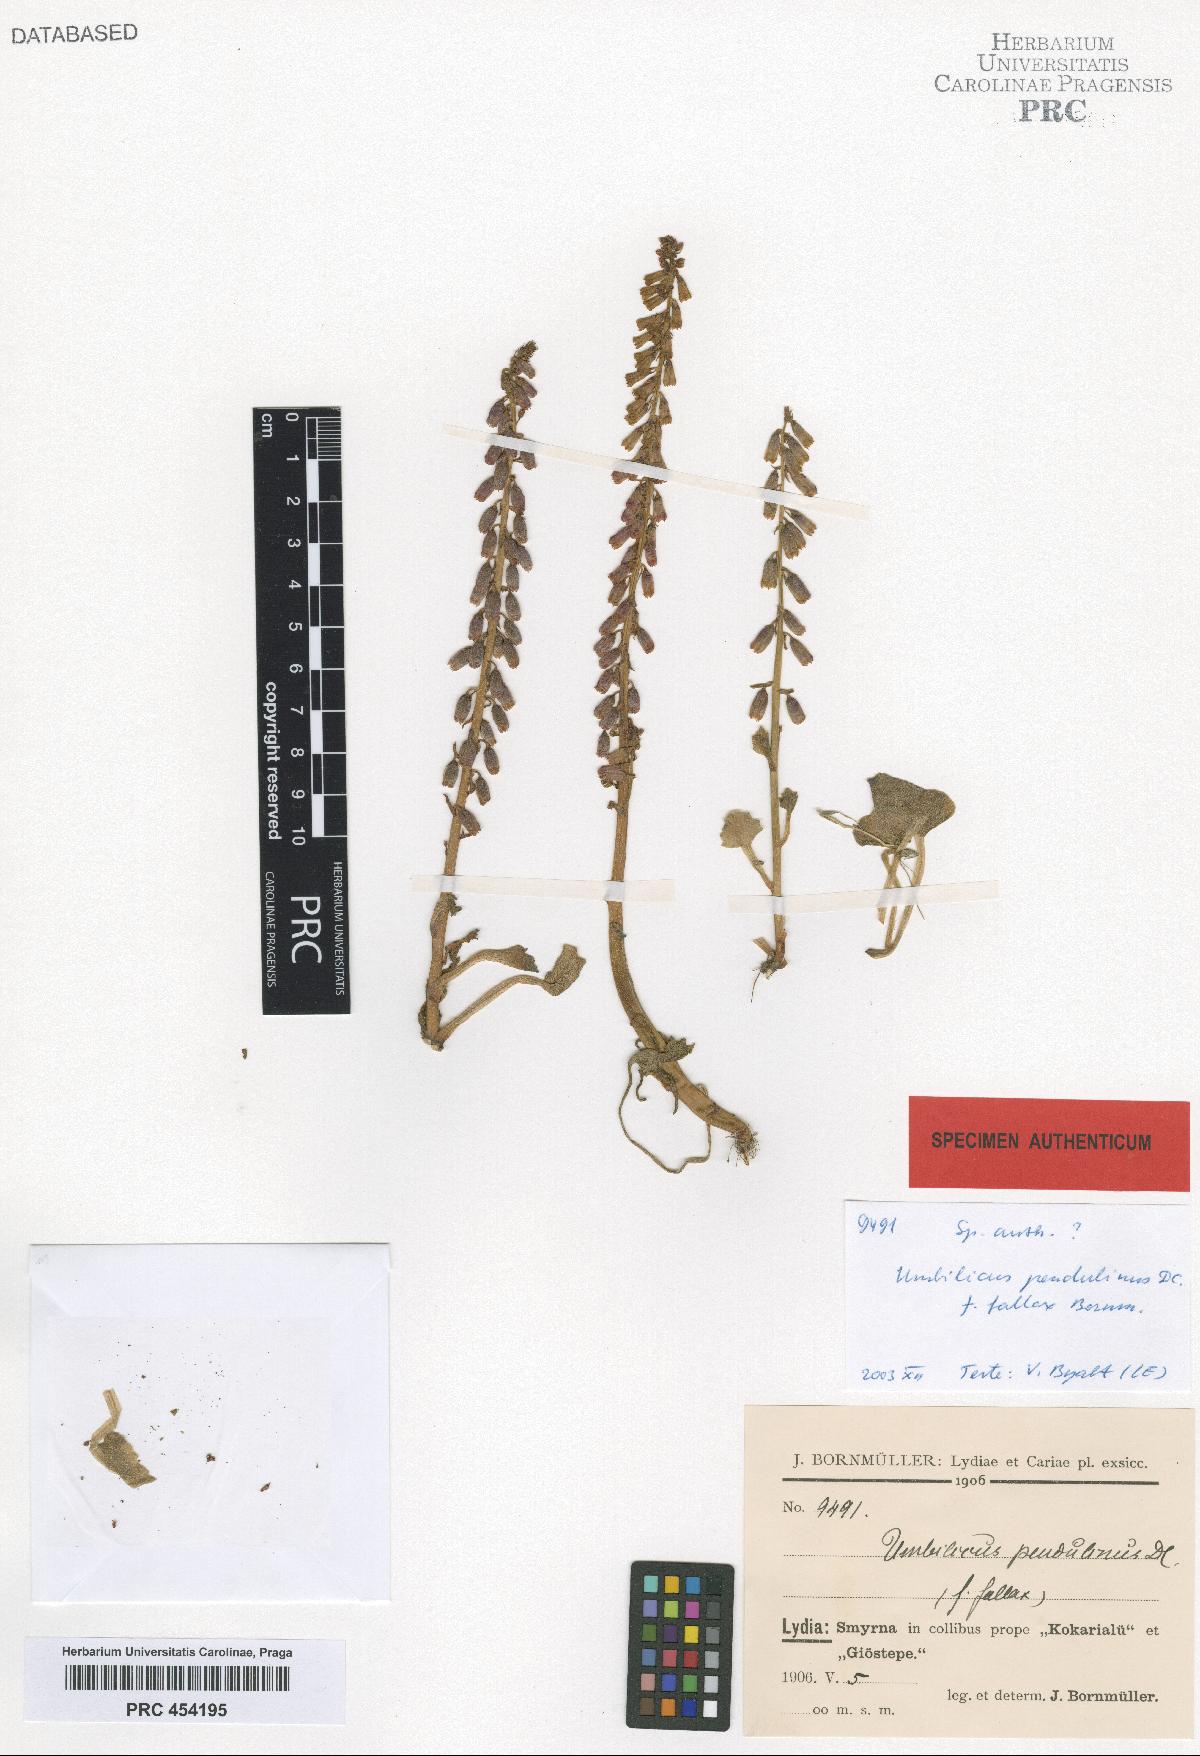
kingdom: Plantae
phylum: Tracheophyta
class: Magnoliopsida
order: Saxifragales
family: Crassulaceae
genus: Umbilicus
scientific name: Umbilicus rupestris
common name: Navelwort
